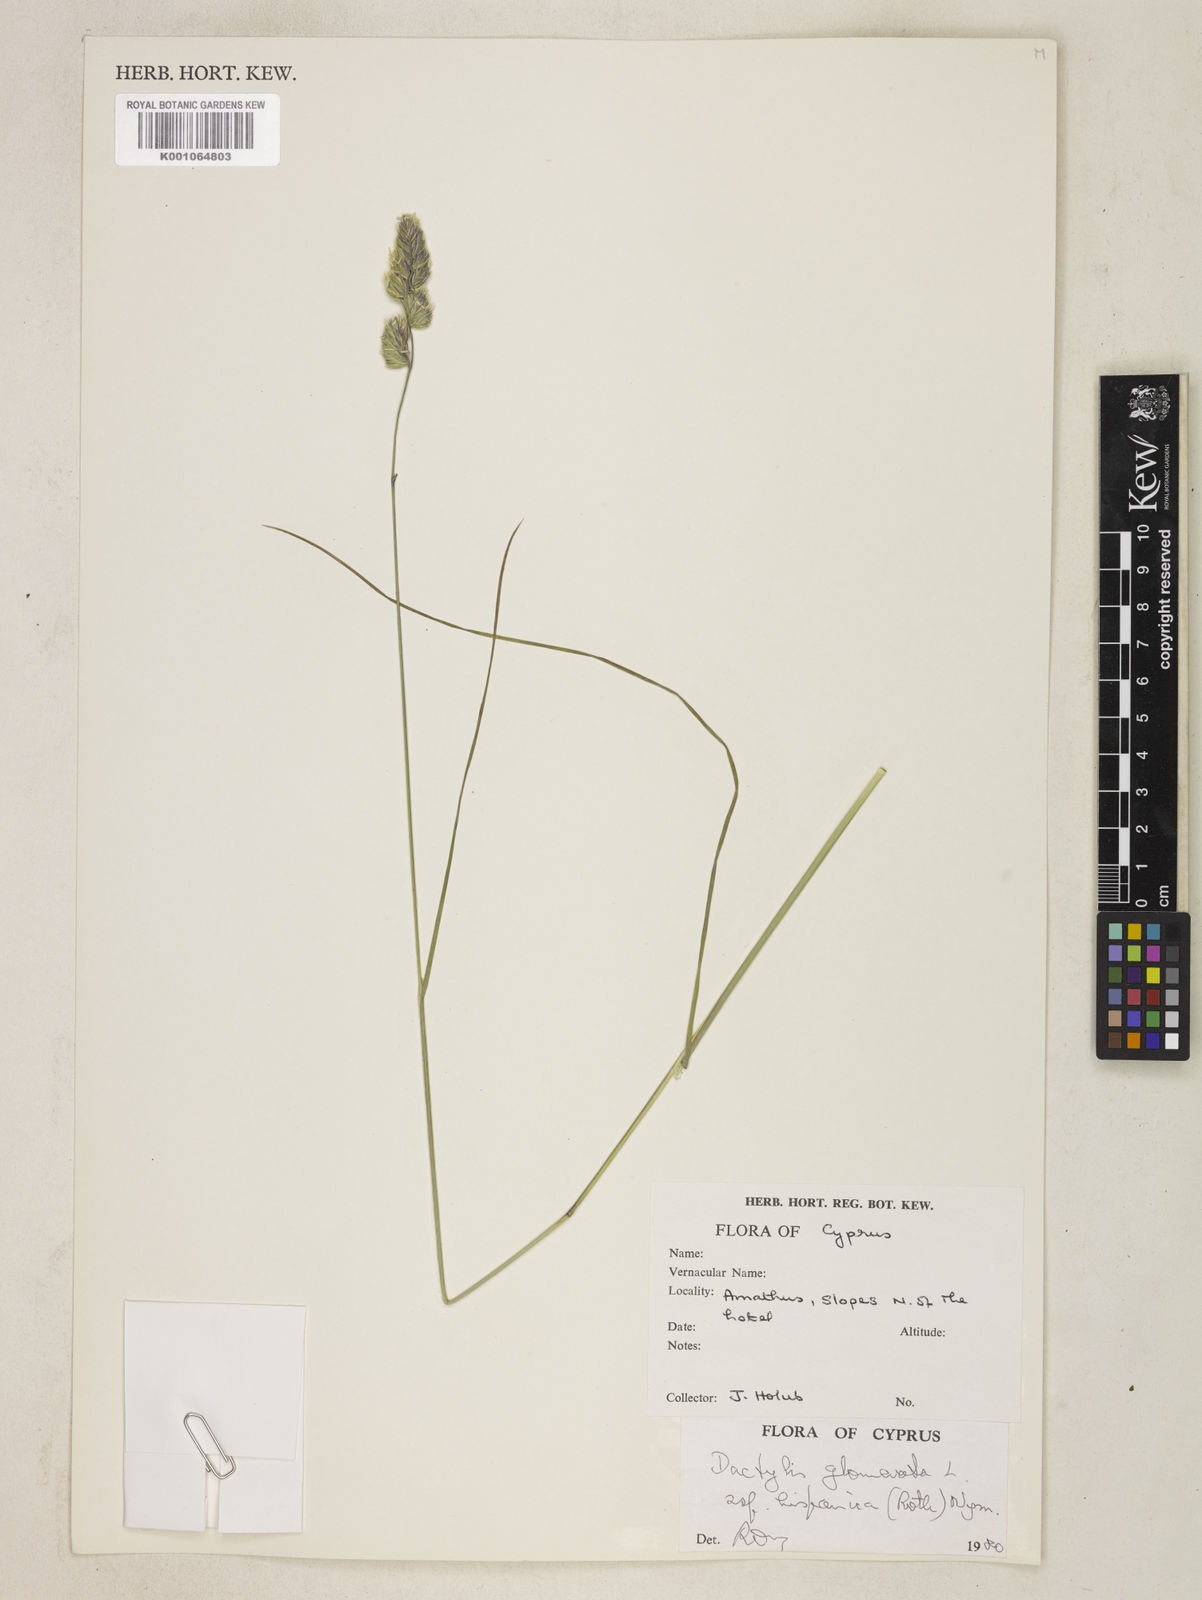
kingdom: Plantae
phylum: Tracheophyta
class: Liliopsida
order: Poales
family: Poaceae
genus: Dactylis
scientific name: Dactylis glomerata
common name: Orchardgrass
